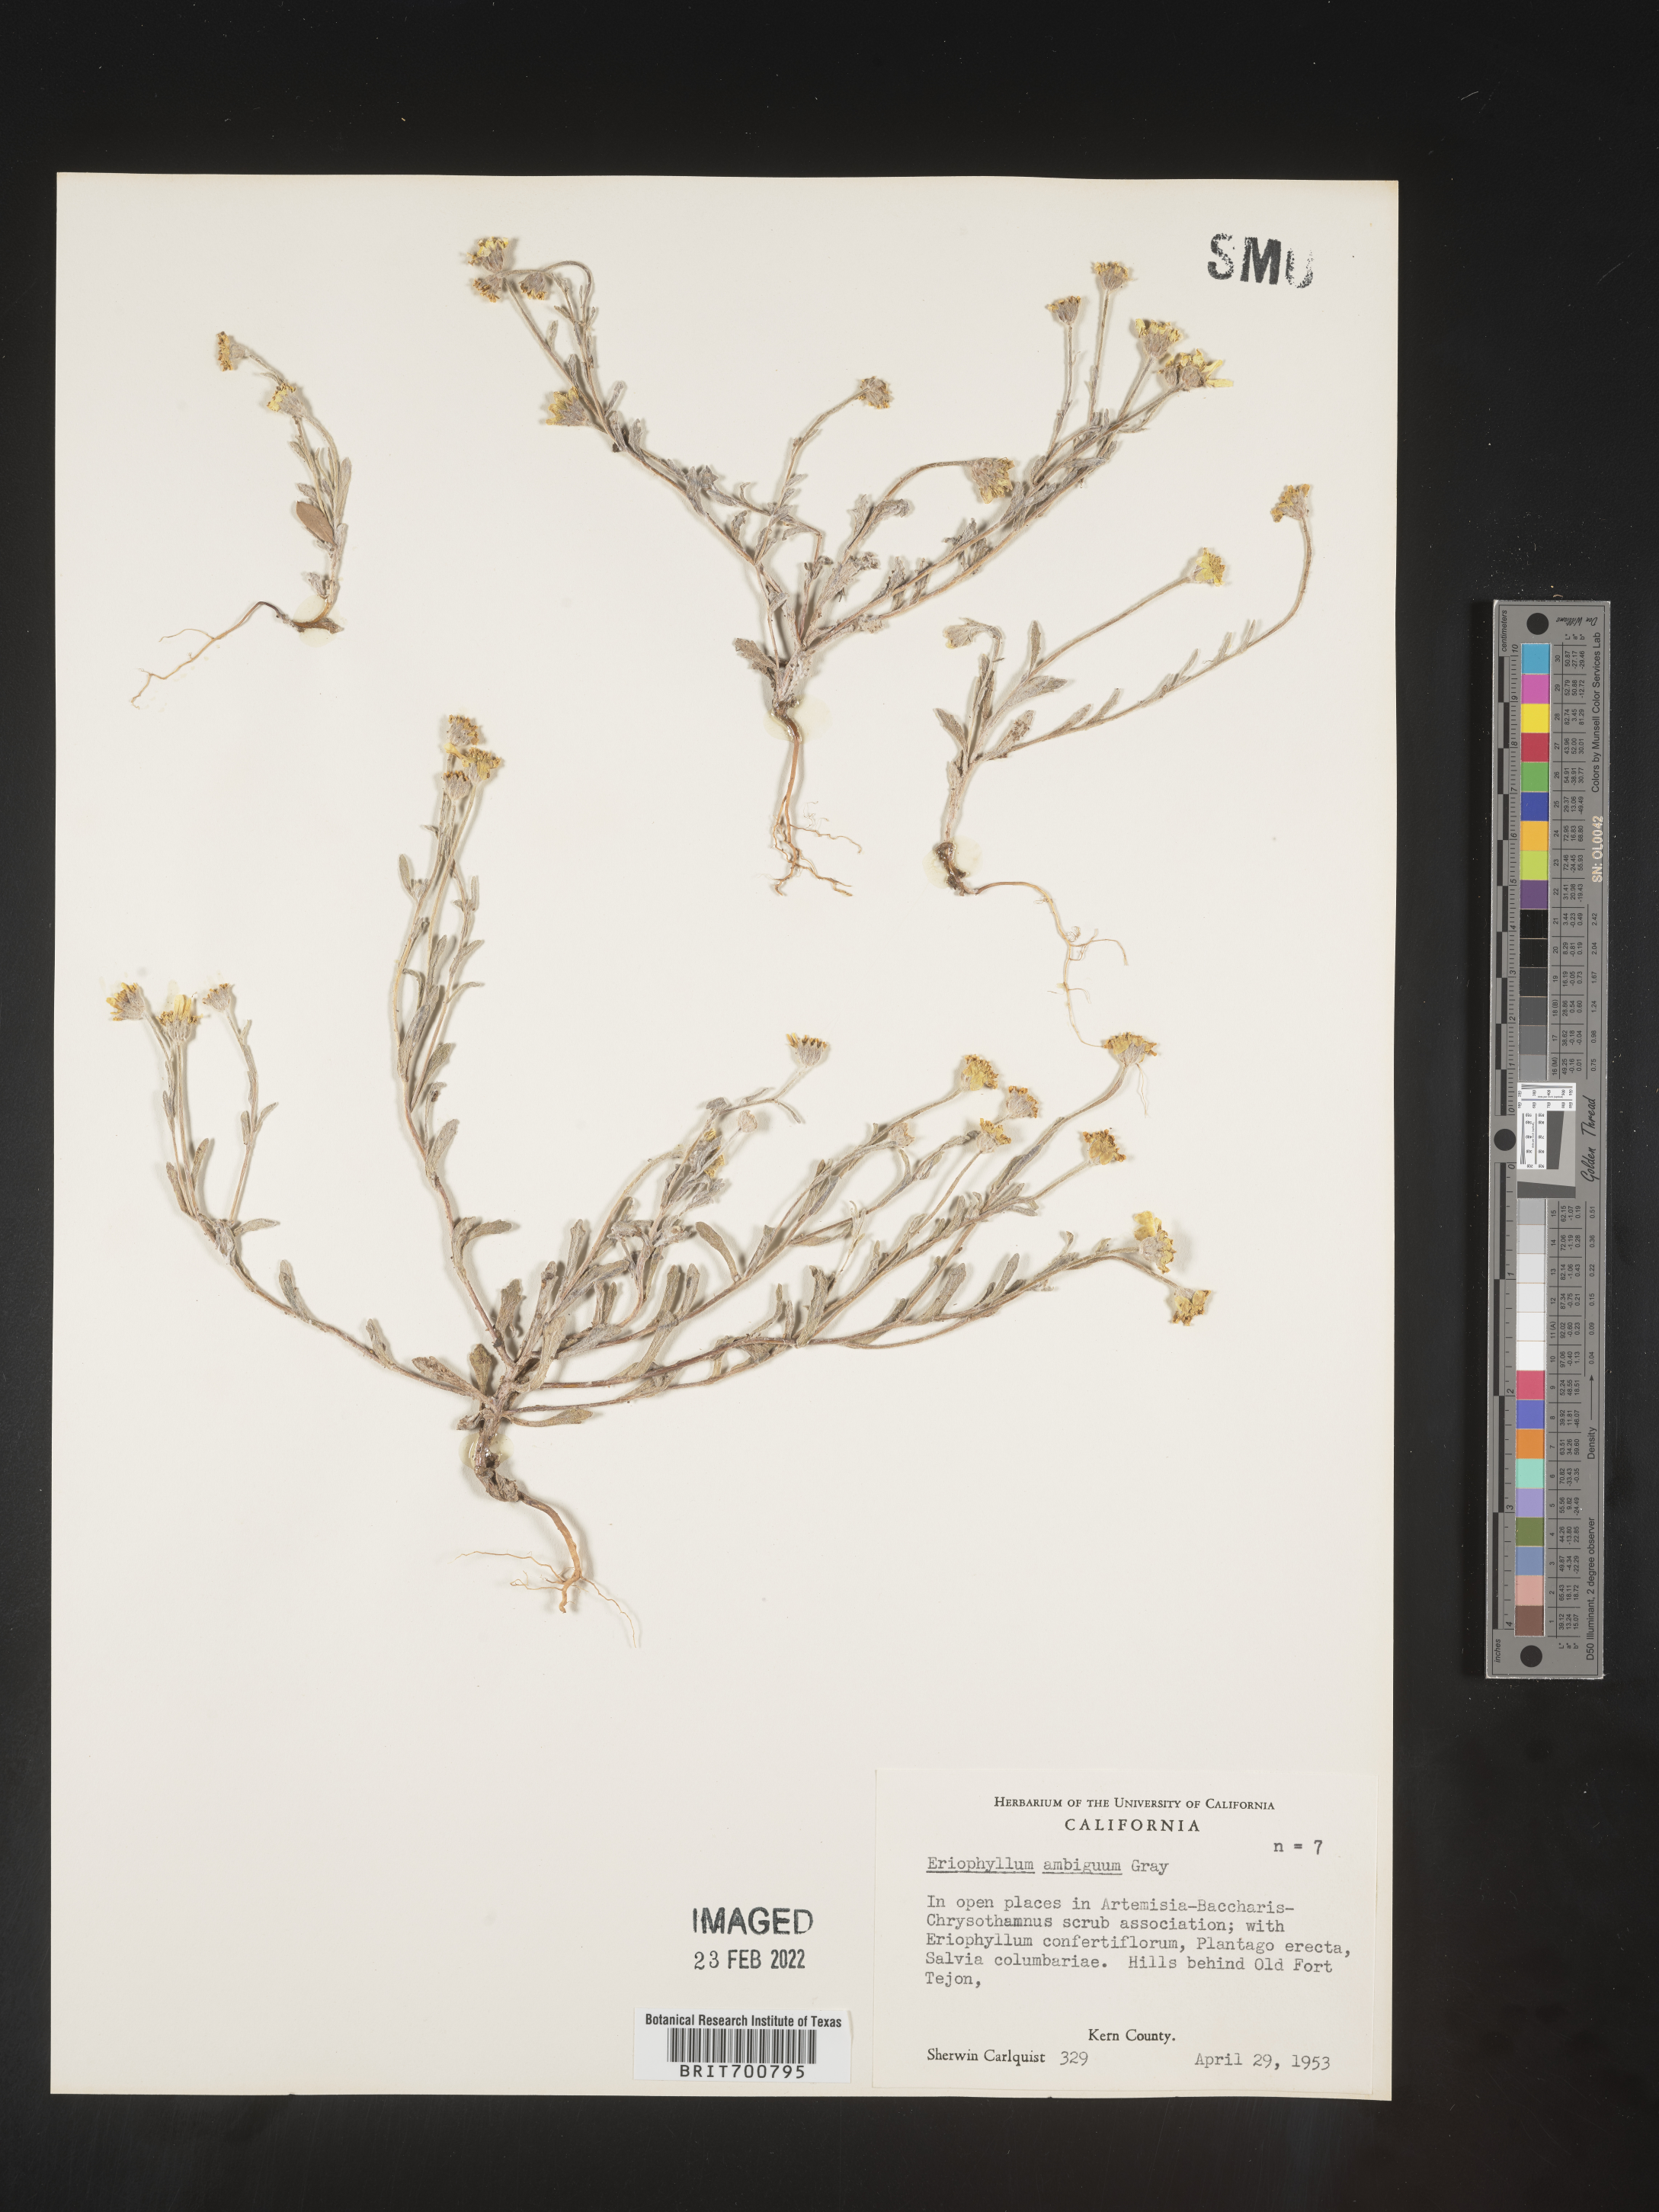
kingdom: Plantae
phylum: Tracheophyta
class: Magnoliopsida
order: Asterales
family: Asteraceae
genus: Eriophyllum
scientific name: Eriophyllum ambiguum
